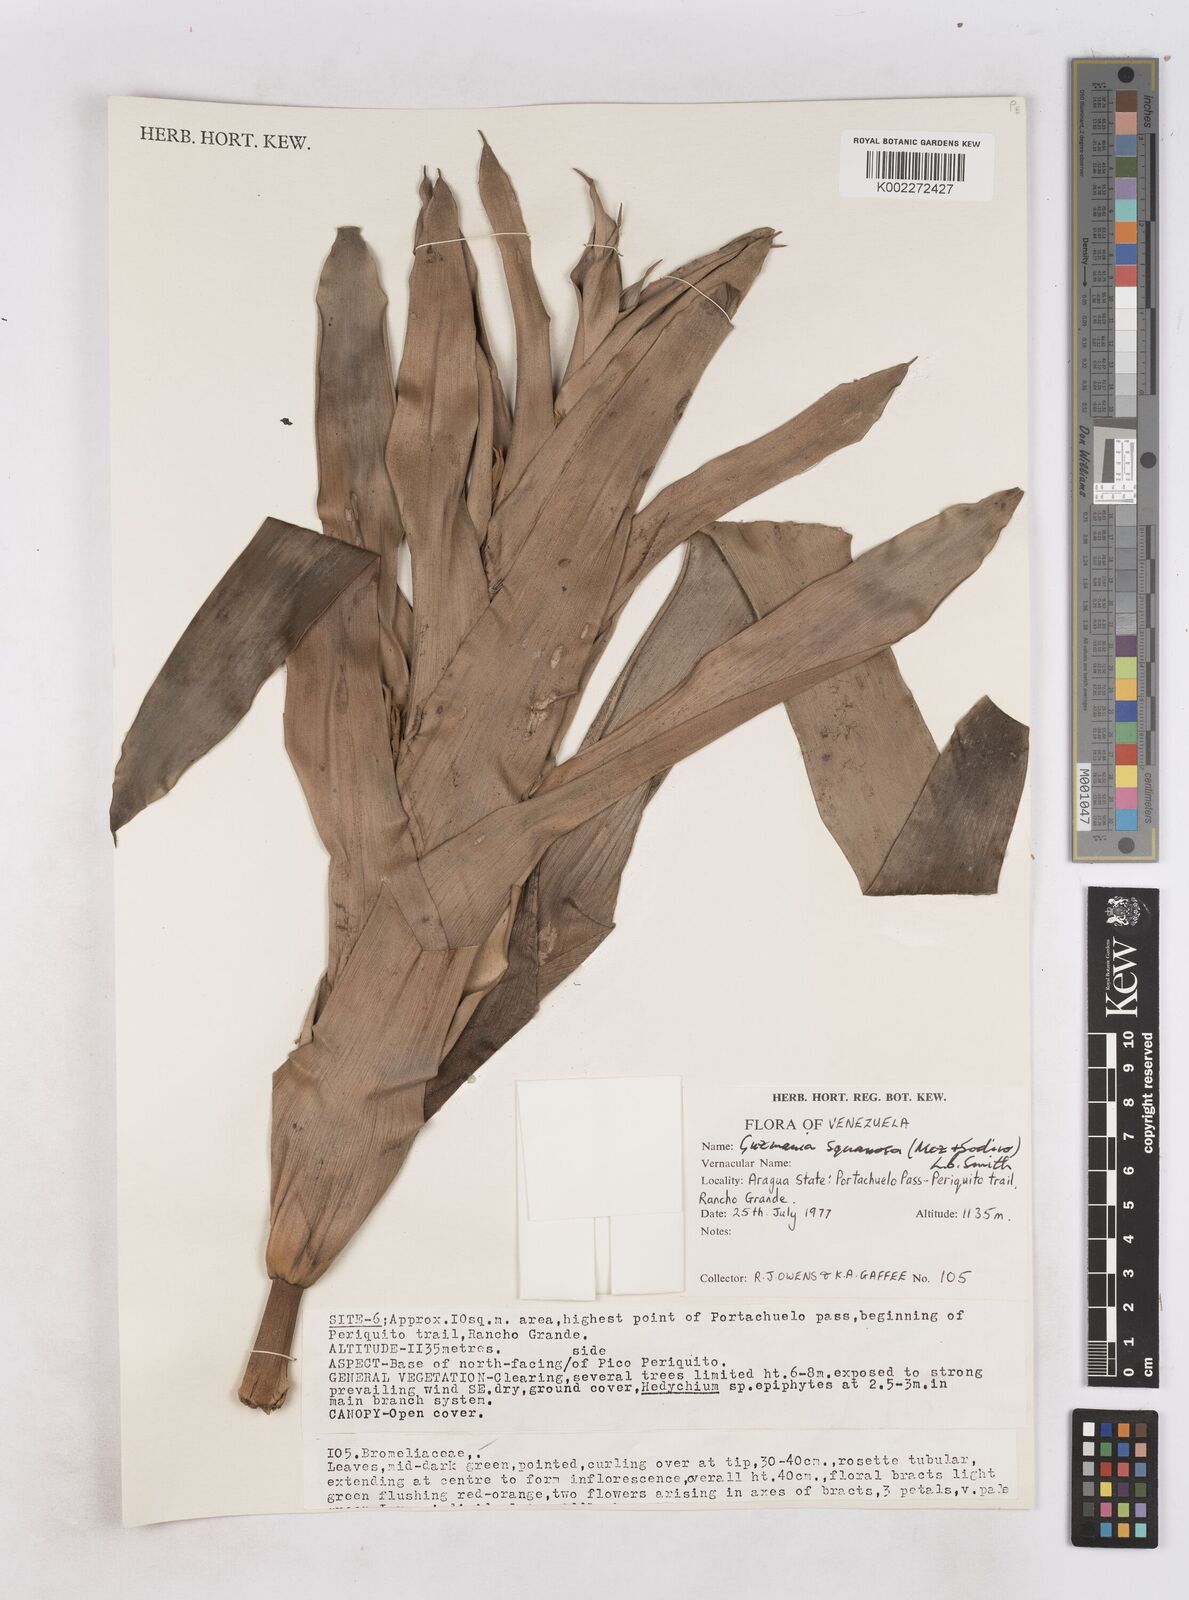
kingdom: Plantae
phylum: Tracheophyta
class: Liliopsida
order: Poales
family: Bromeliaceae
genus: Guzmania
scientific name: Guzmania squarrosa
